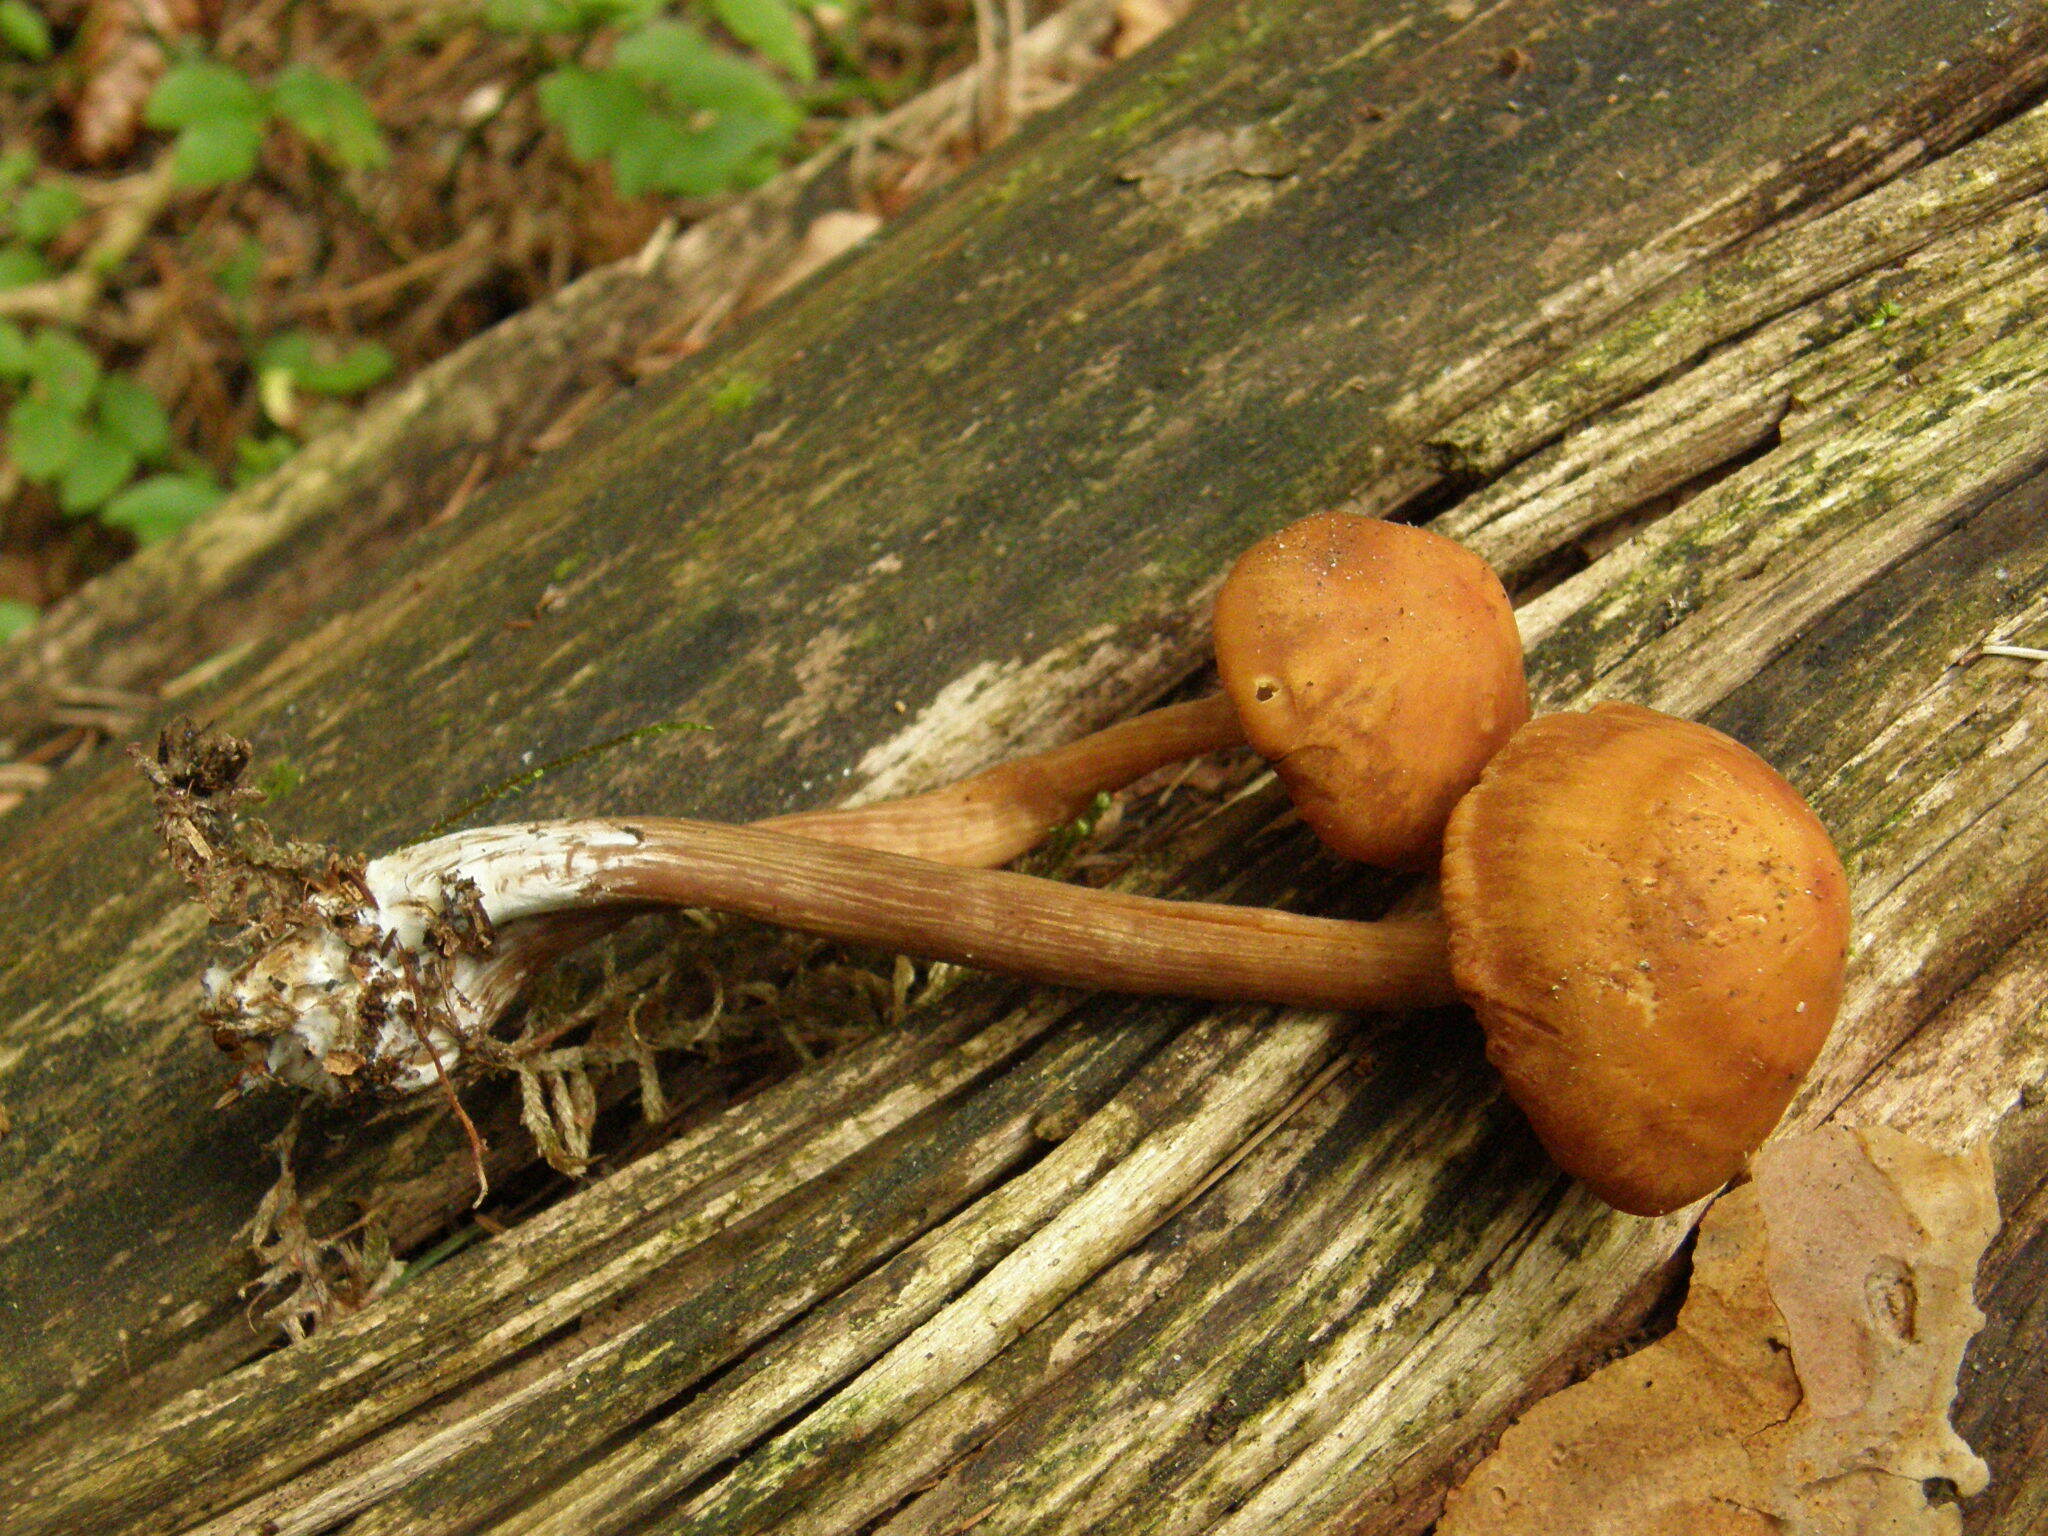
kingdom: Fungi
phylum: Basidiomycota
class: Agaricomycetes
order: Agaricales
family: Hymenogastraceae
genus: Gymnopilus
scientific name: Gymnopilus picreus
